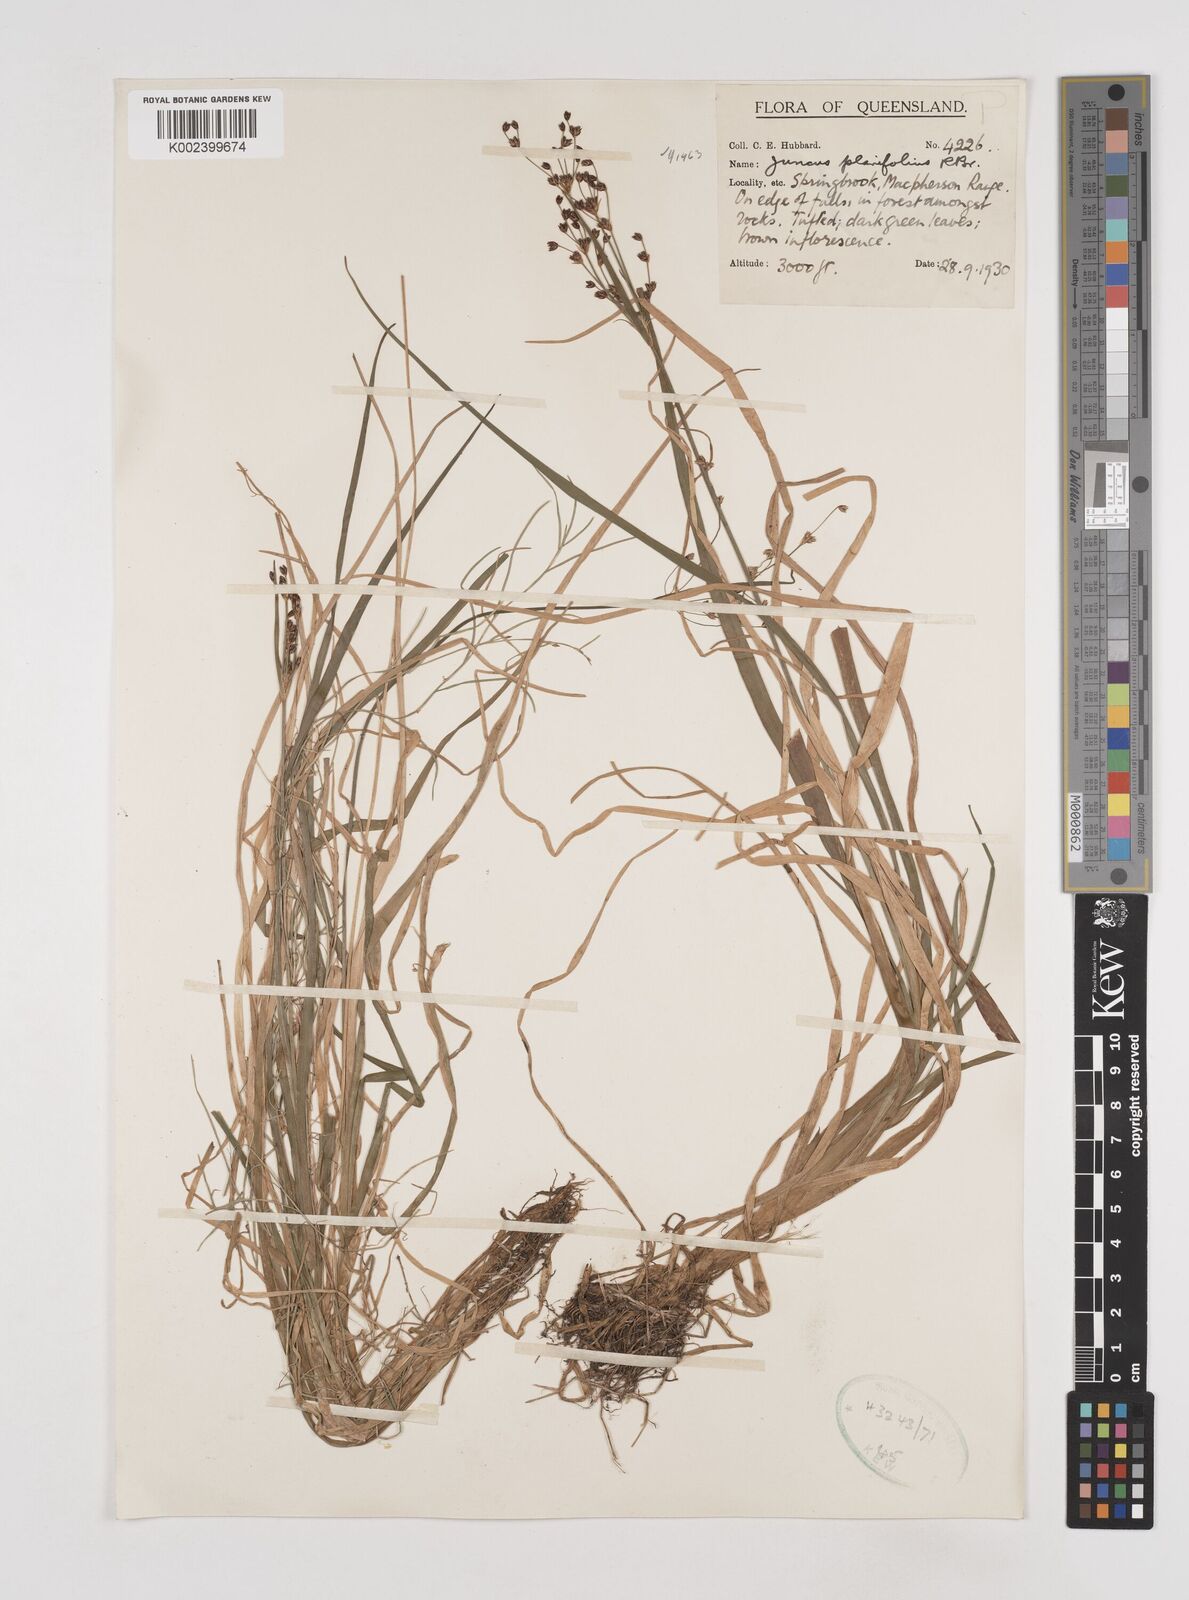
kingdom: Plantae
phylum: Tracheophyta
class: Liliopsida
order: Poales
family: Juncaceae
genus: Juncus
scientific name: Juncus planifolius
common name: Broadleaf rush
